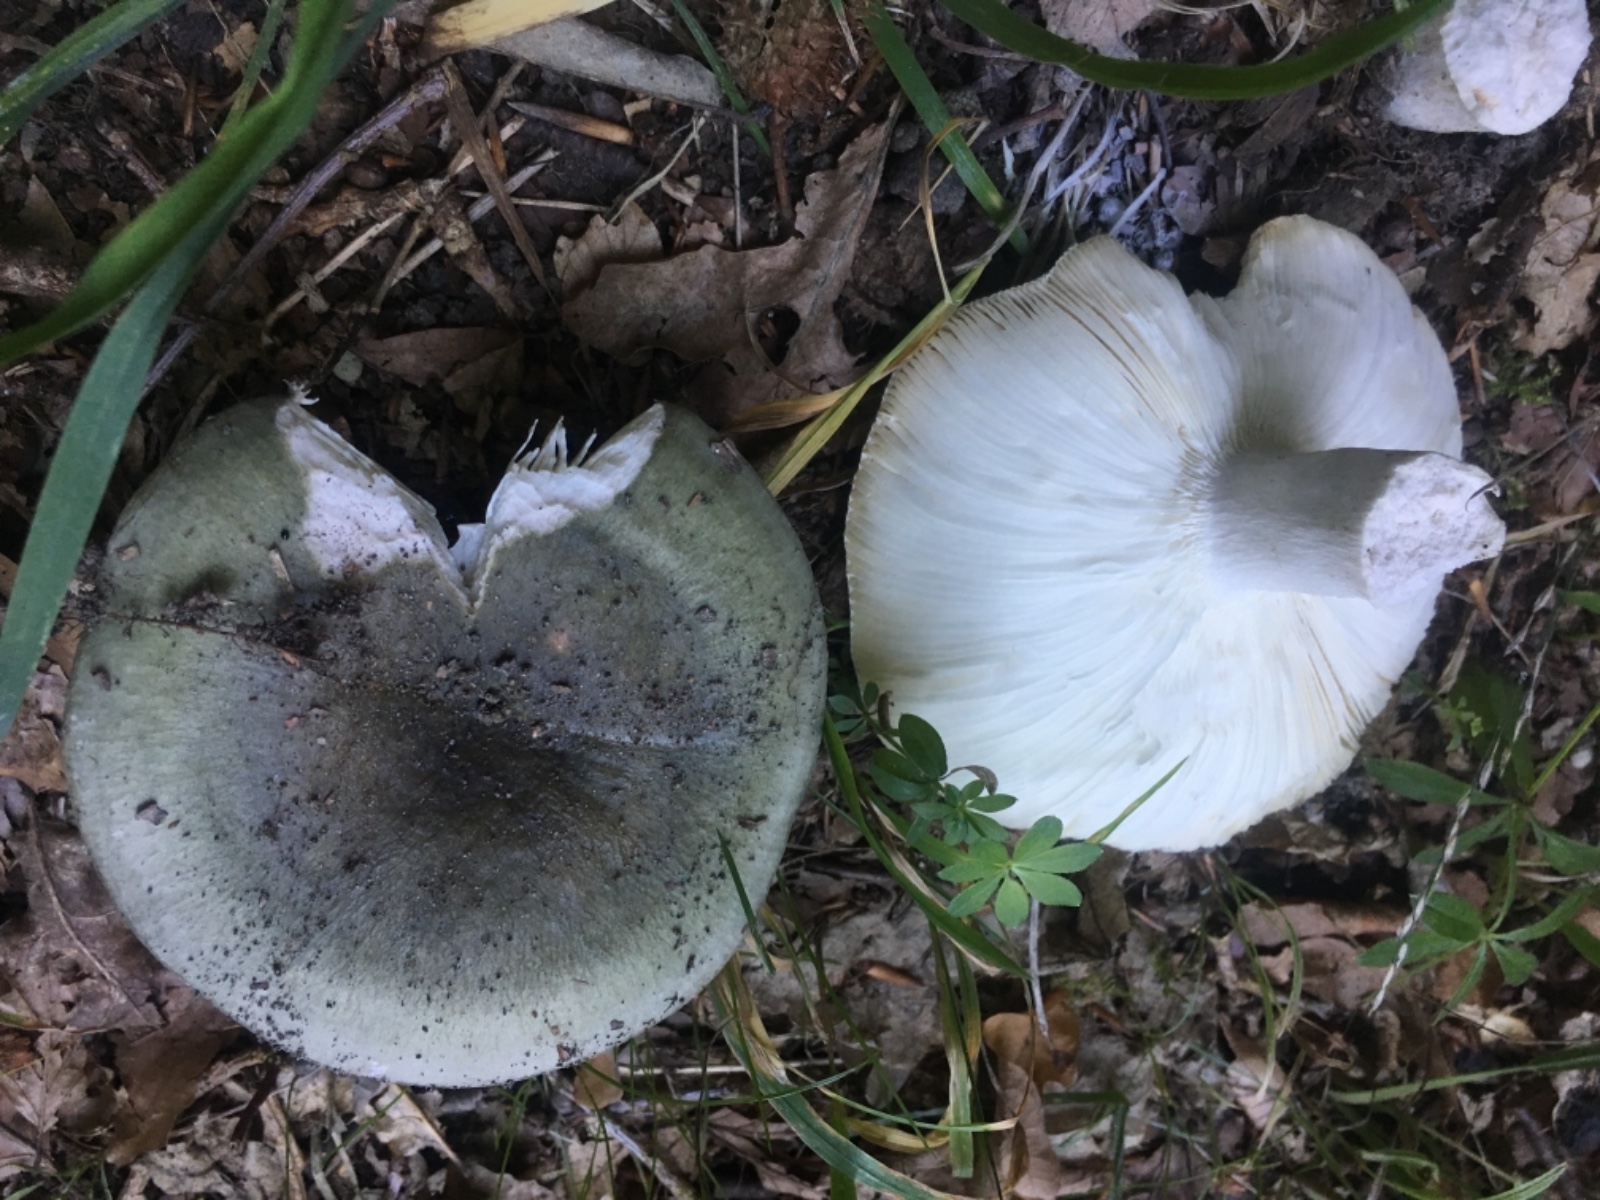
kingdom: Fungi
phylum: Basidiomycota
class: Agaricomycetes
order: Russulales
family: Russulaceae
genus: Russula
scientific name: Russula
